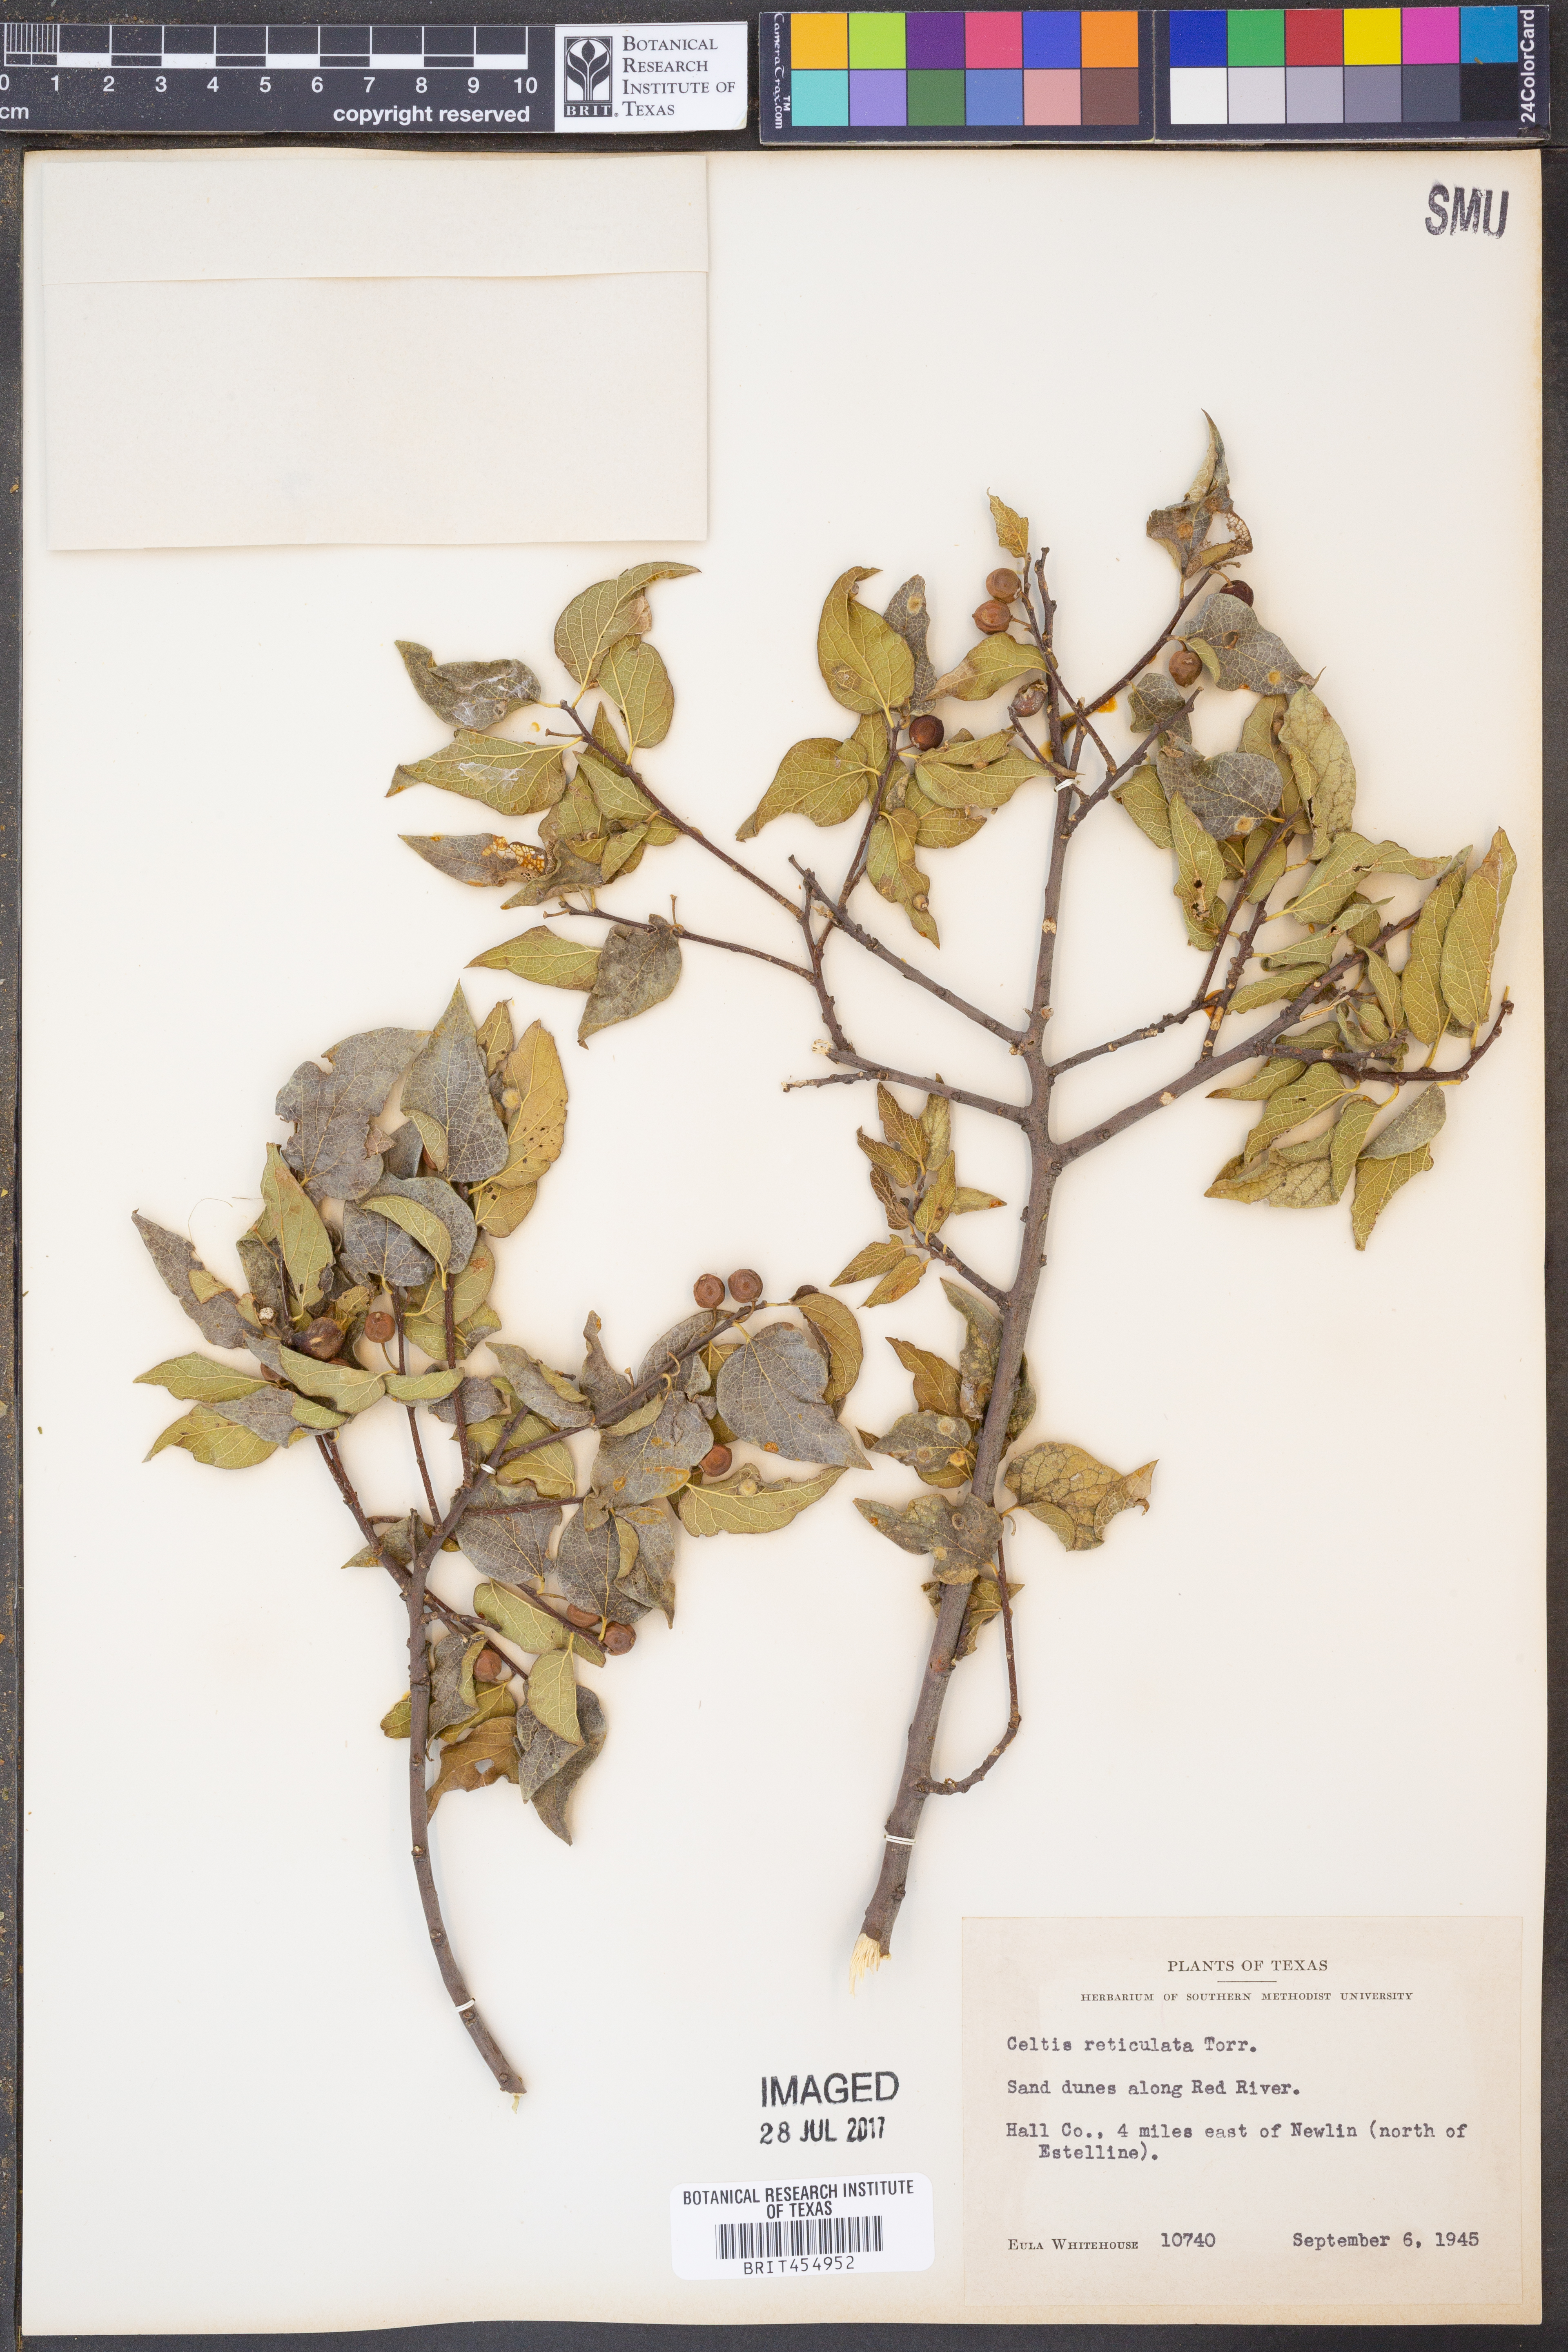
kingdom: Plantae
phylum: Tracheophyta
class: Magnoliopsida
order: Rosales
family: Cannabaceae
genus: Celtis
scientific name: Celtis reticulata
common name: Netleaf hackberry
